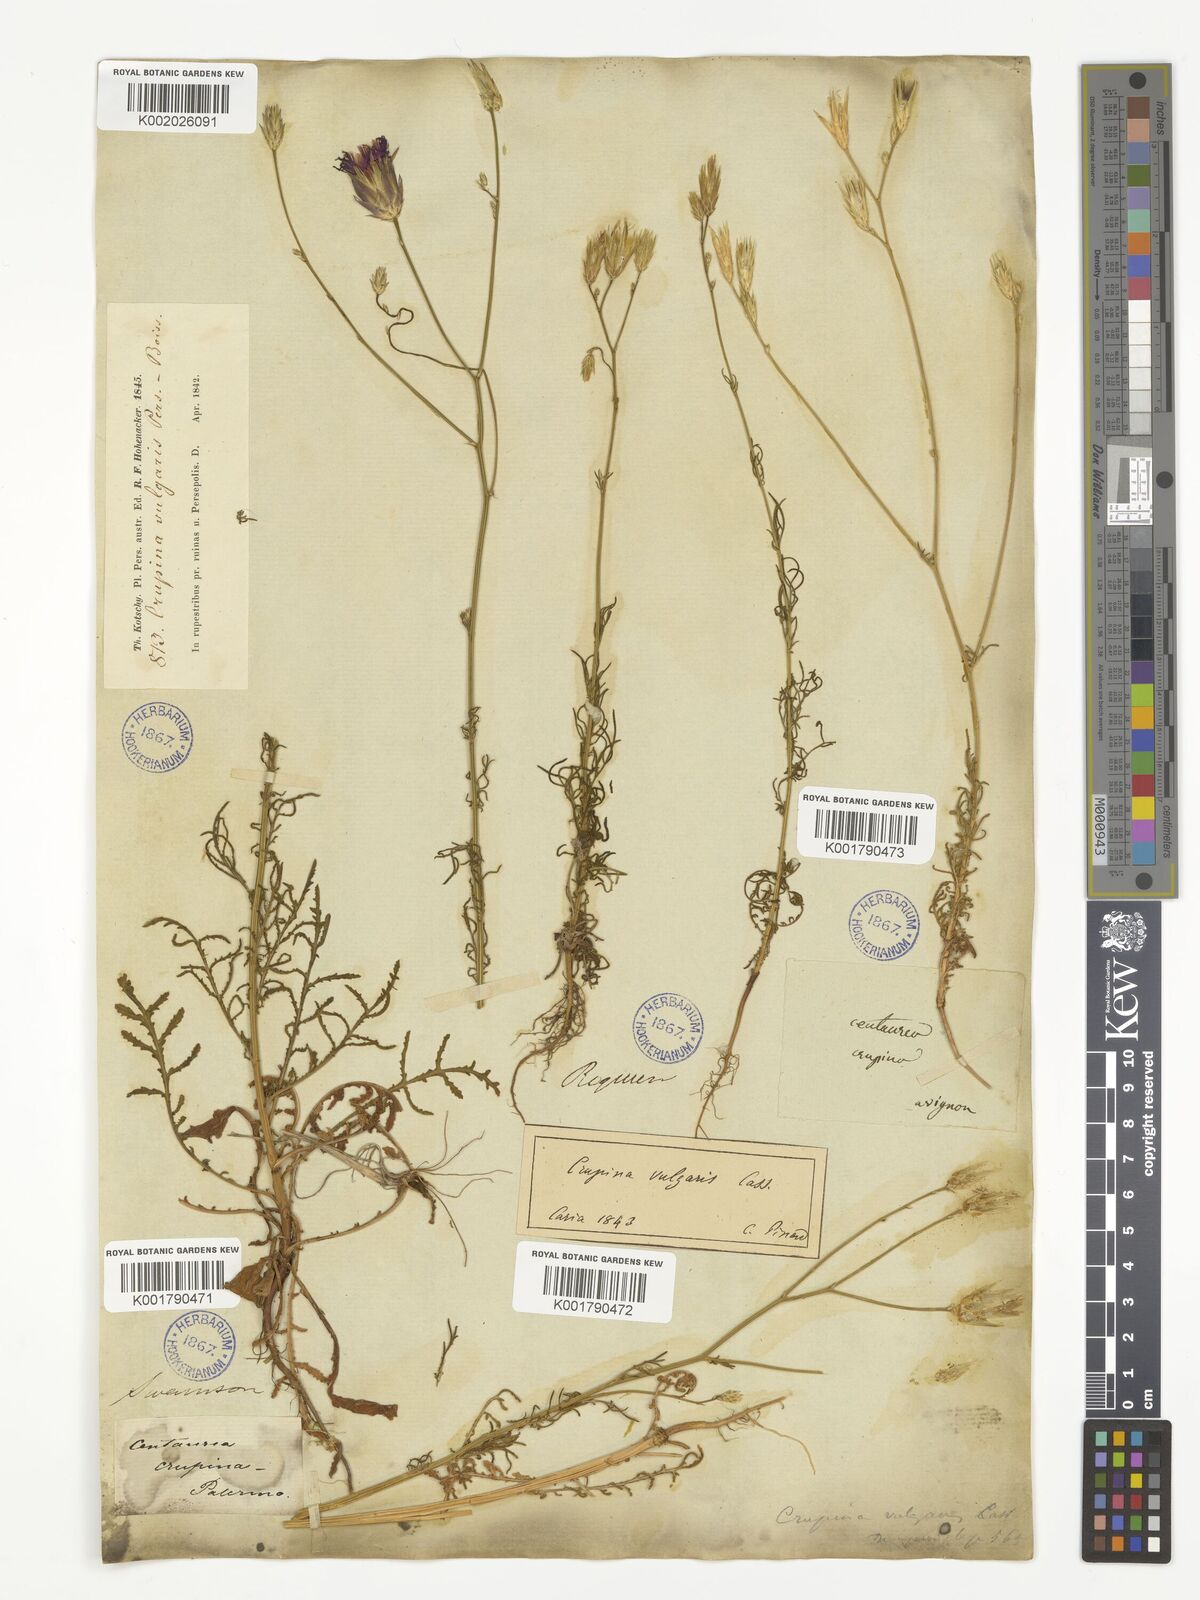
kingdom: Plantae
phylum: Tracheophyta
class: Magnoliopsida
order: Asterales
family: Asteraceae
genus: Crupina
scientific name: Crupina crupinastrum
